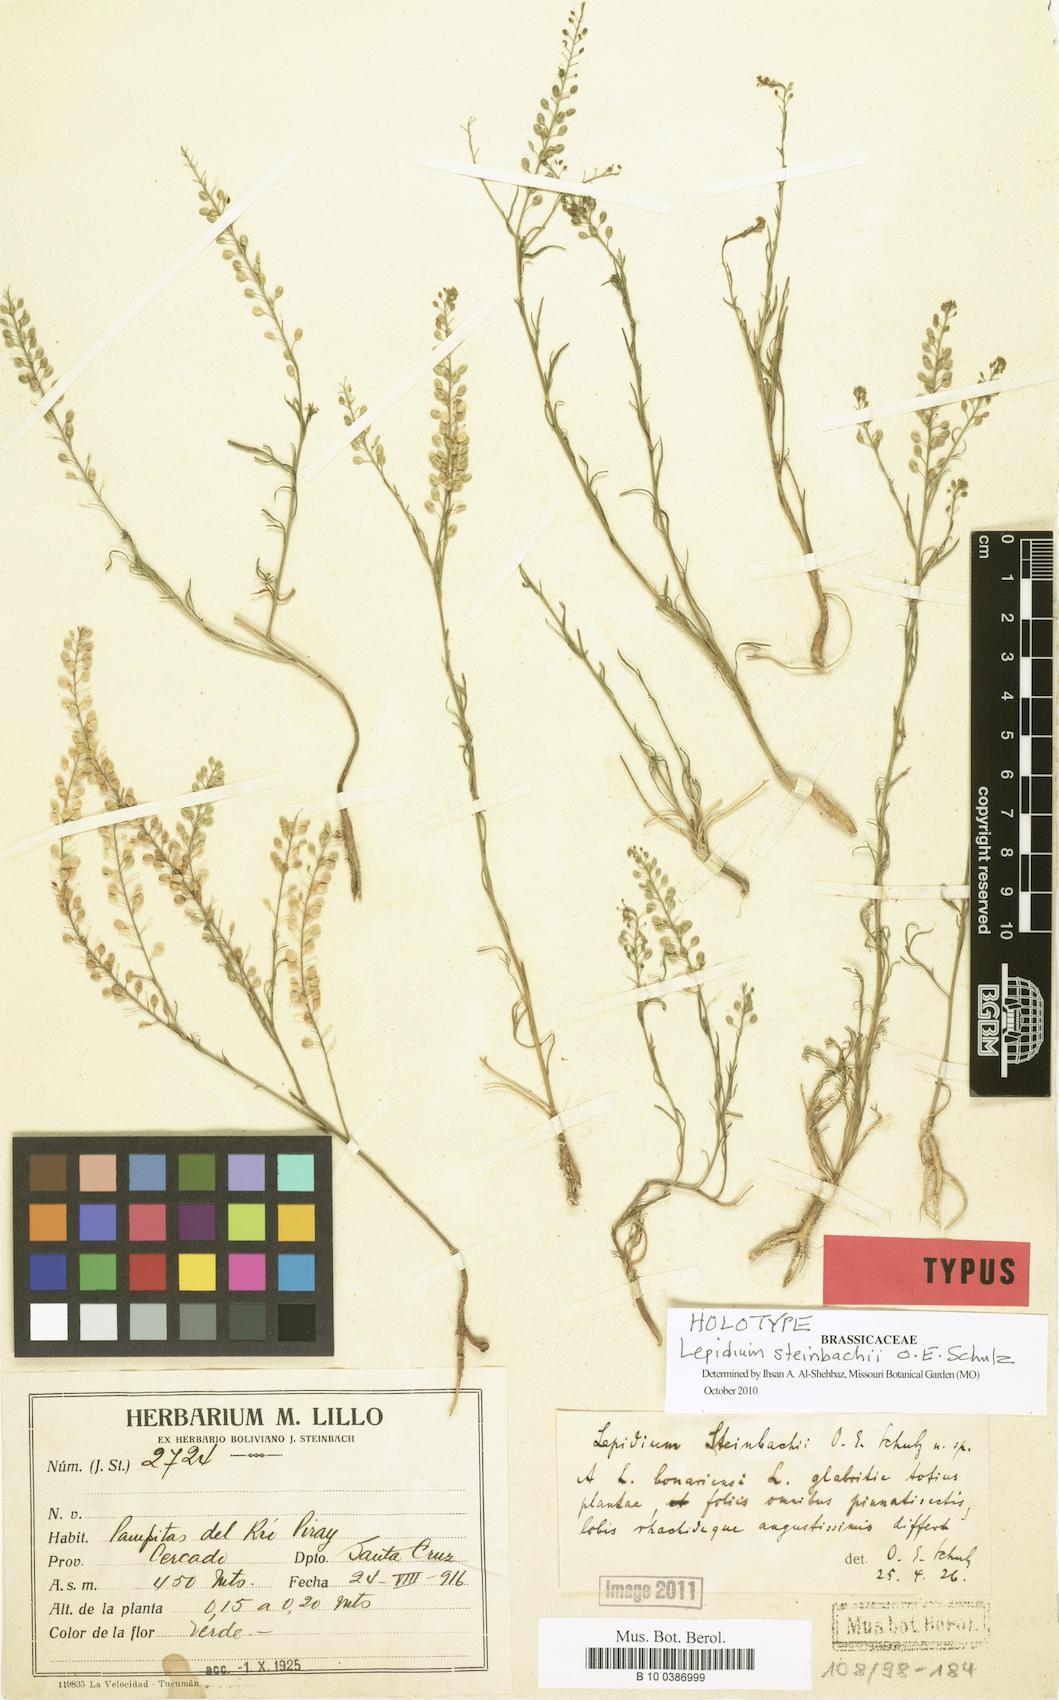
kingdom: Plantae
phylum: Tracheophyta
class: Magnoliopsida
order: Brassicales
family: Brassicaceae
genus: Lepidium
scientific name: Lepidium steinbachii
